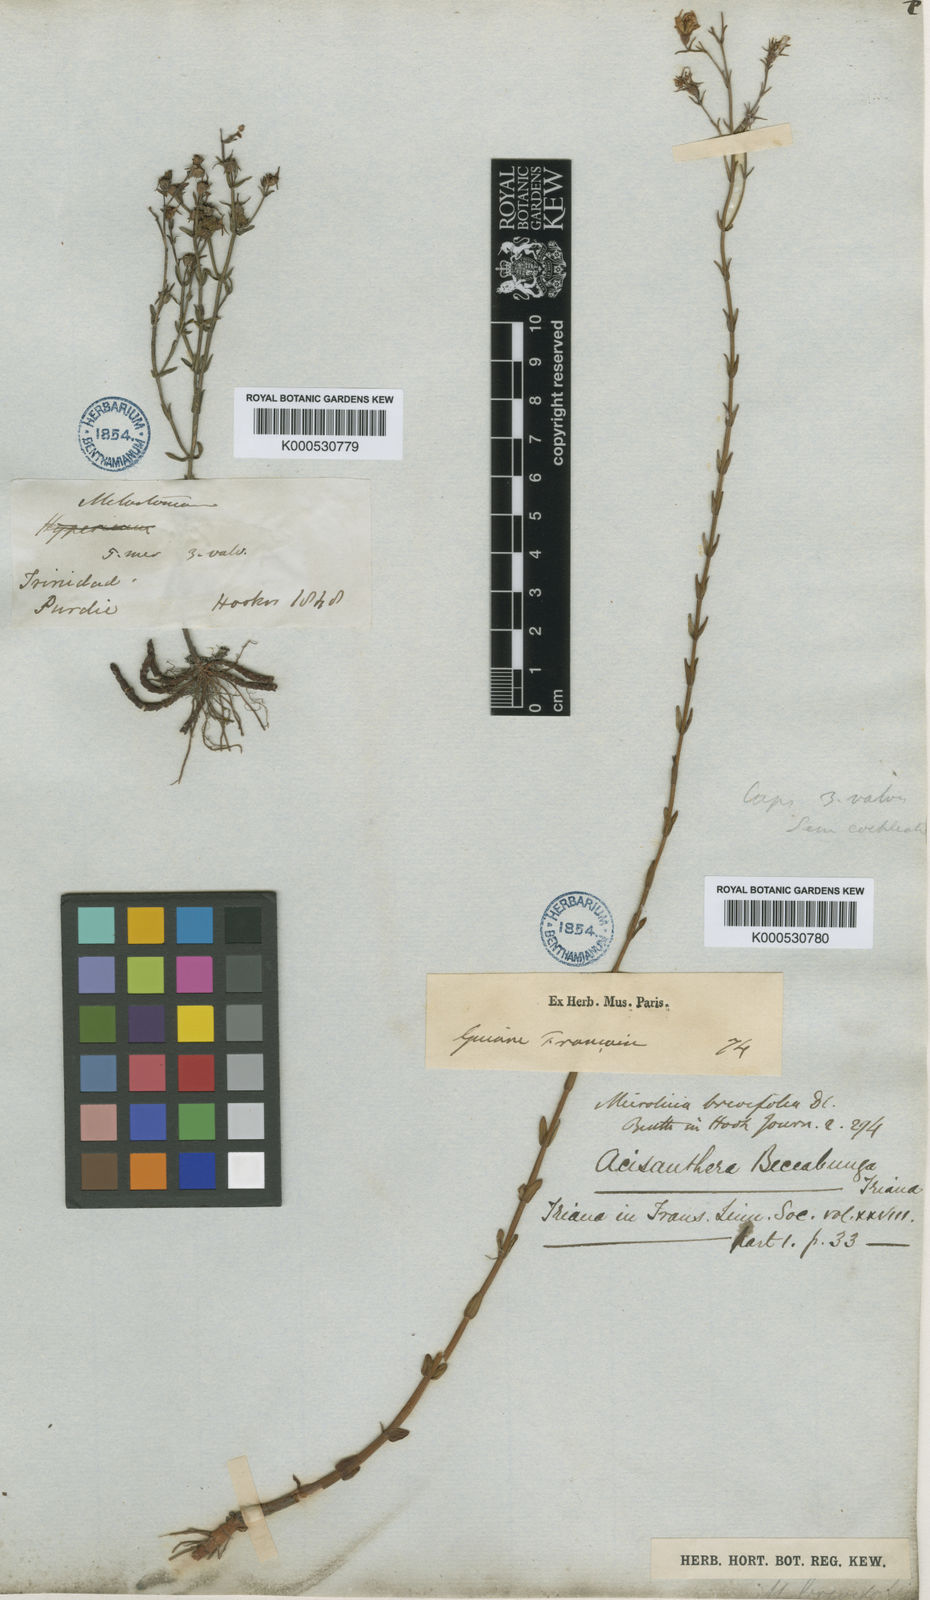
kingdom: Plantae
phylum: Tracheophyta
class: Magnoliopsida
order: Myrtales
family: Melastomataceae
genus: Noterophila
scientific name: Noterophila bivalvis
